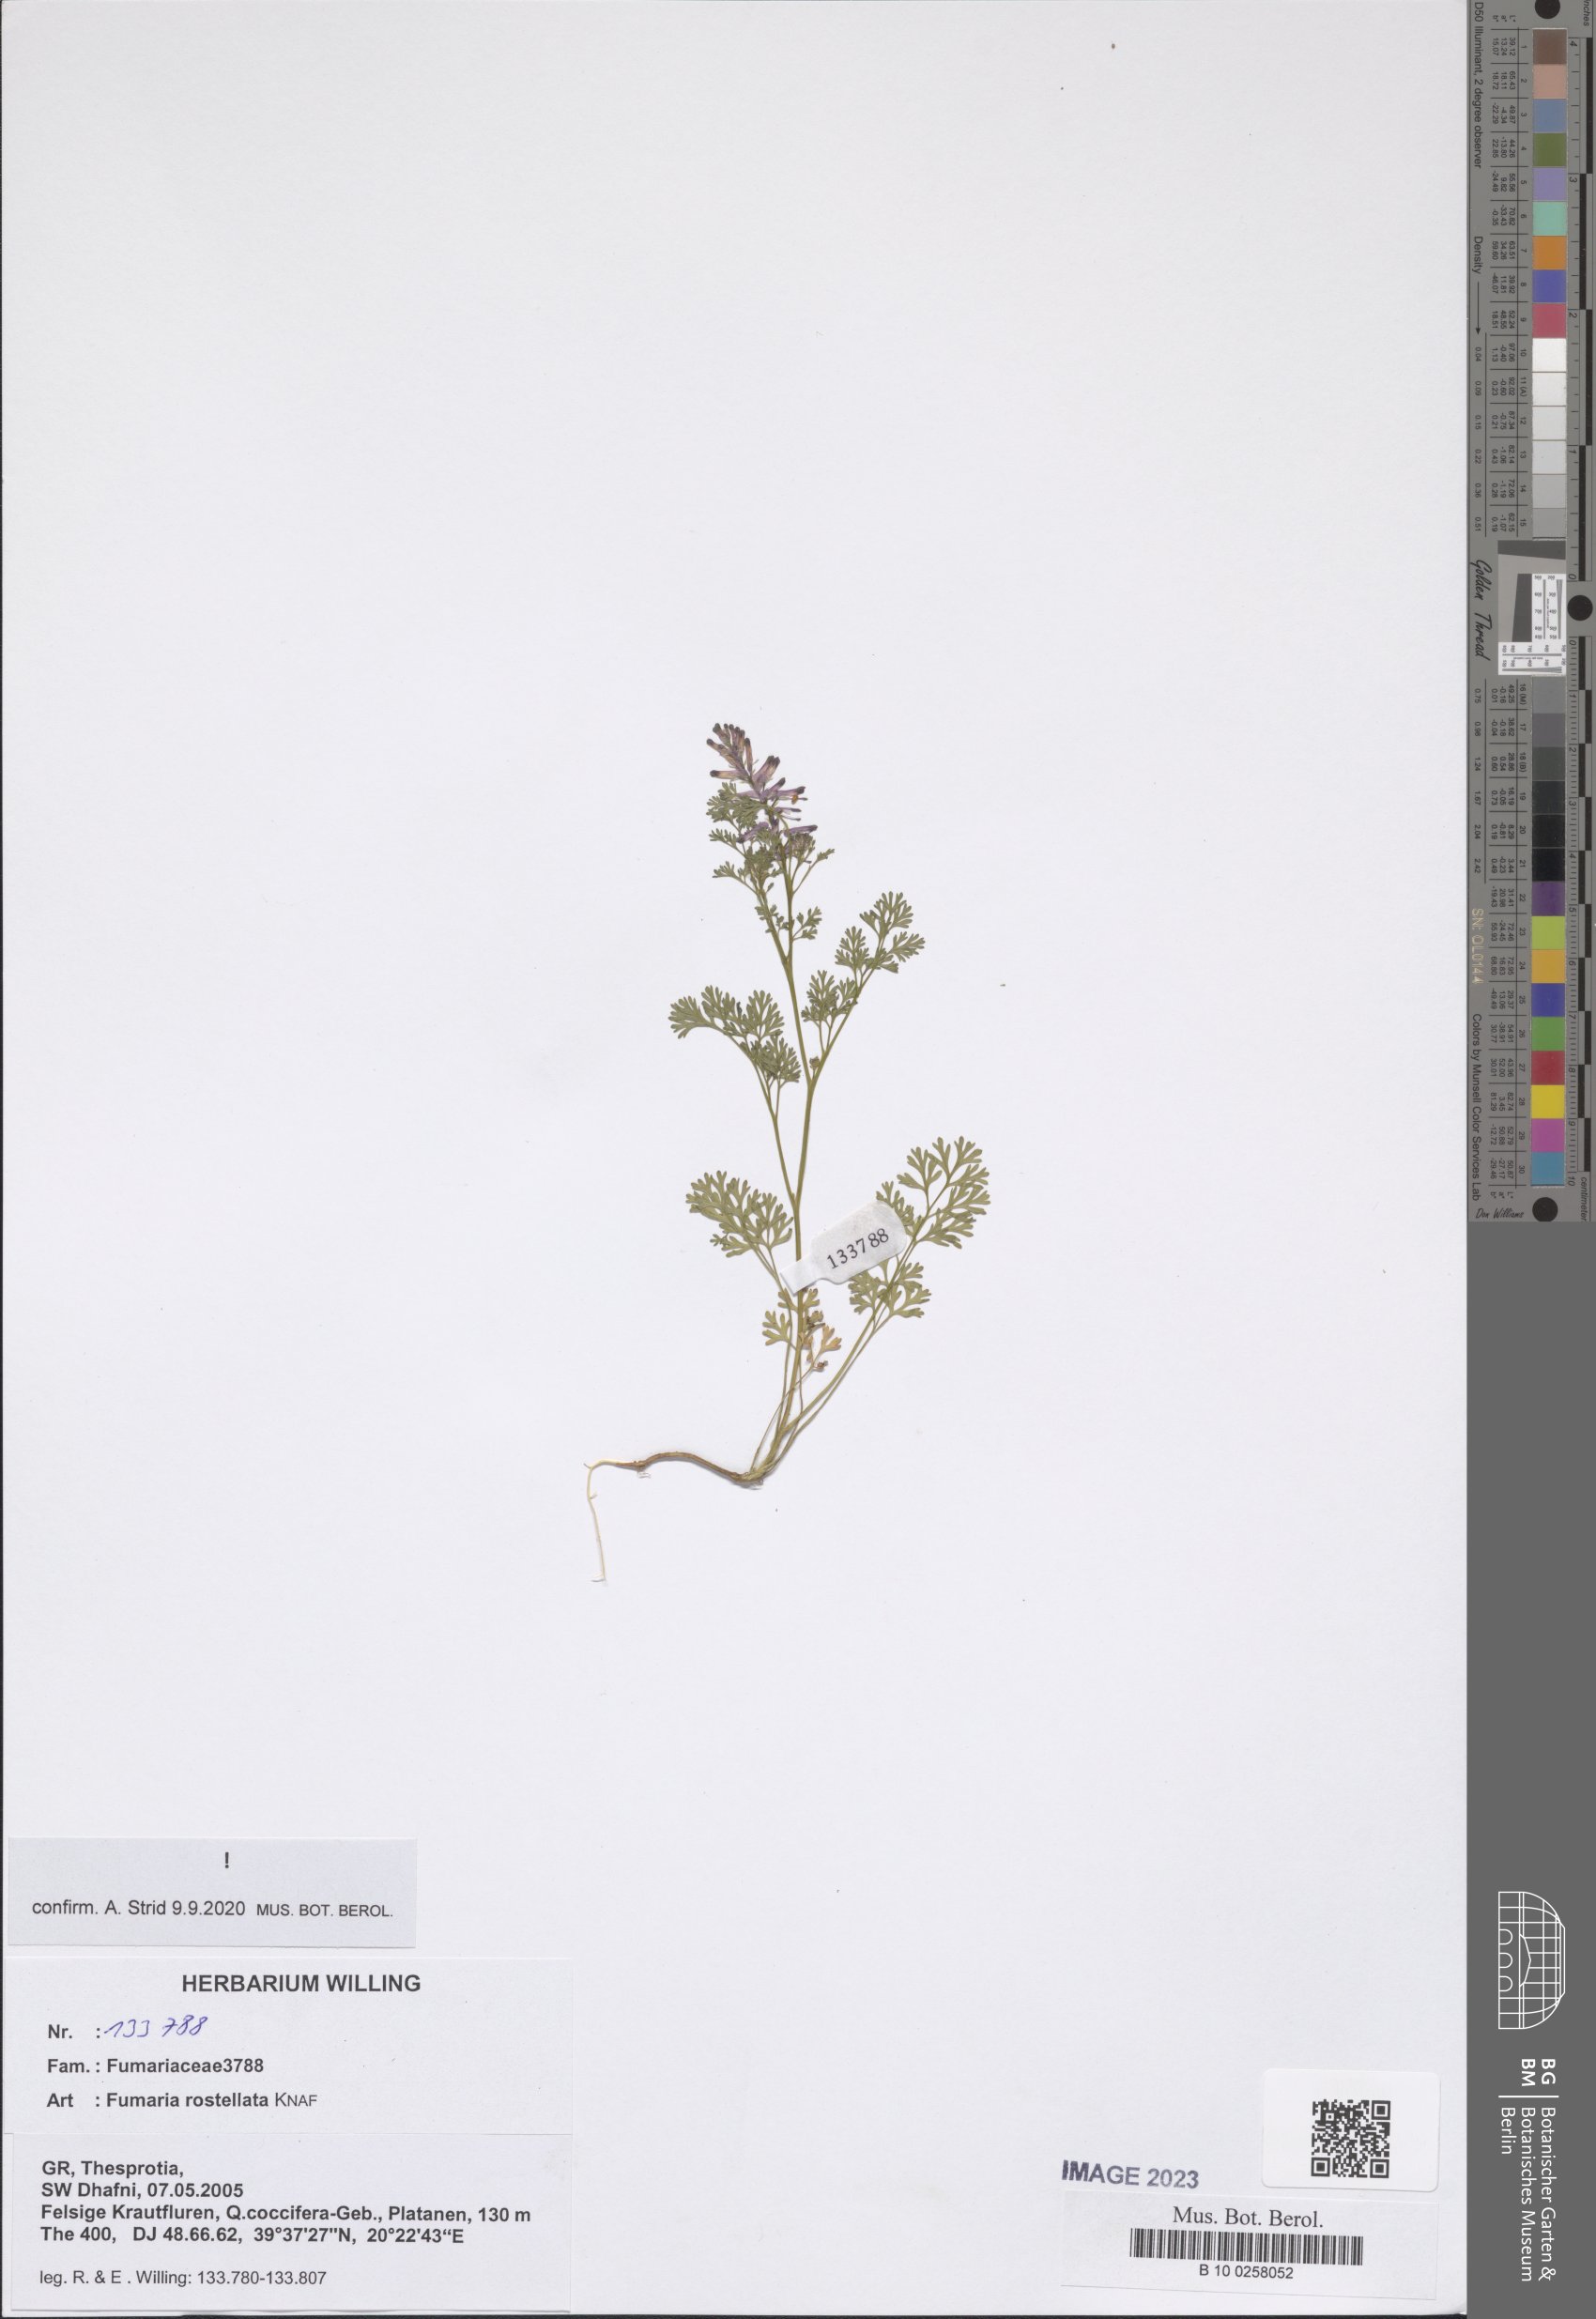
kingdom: Plantae
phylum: Tracheophyta
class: Magnoliopsida
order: Ranunculales
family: Papaveraceae
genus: Fumaria
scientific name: Fumaria rostellata
